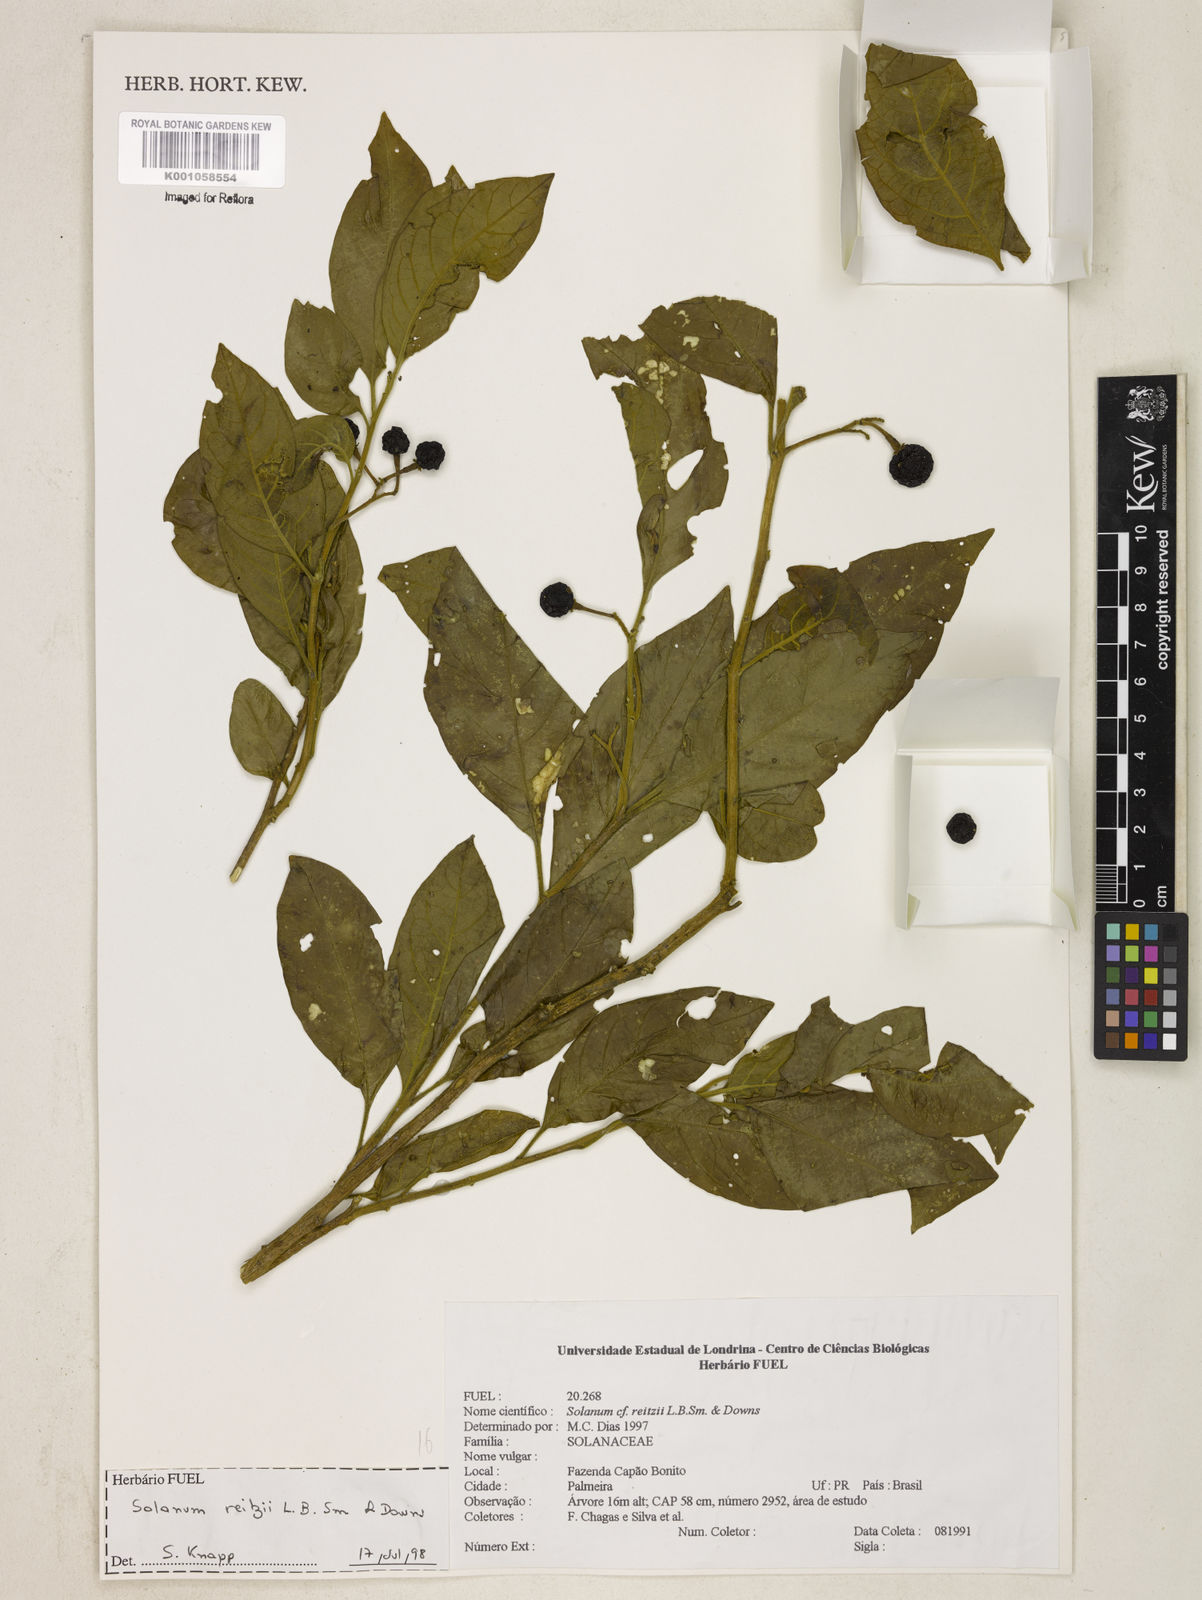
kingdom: Plantae
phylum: Tracheophyta
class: Magnoliopsida
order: Solanales
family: Solanaceae
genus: Solanum
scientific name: Solanum reitzii
